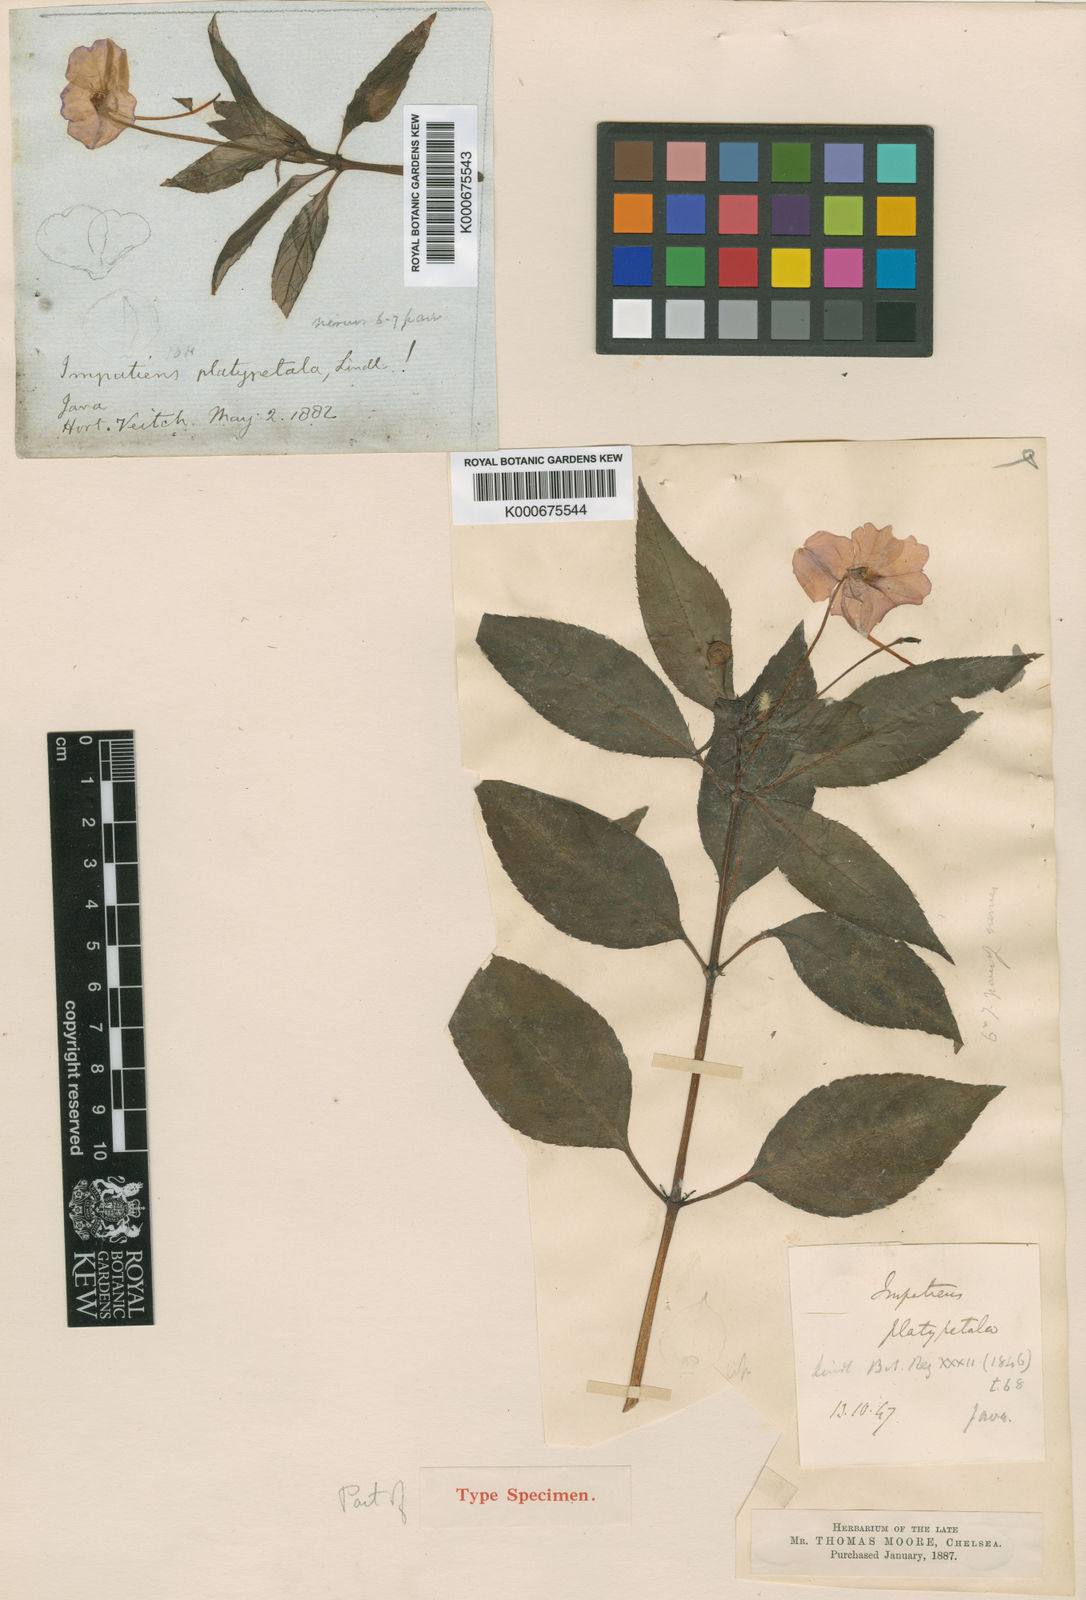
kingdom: Plantae
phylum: Tracheophyta
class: Magnoliopsida
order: Ericales
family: Balsaminaceae
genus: Impatiens
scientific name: Impatiens platypetala
